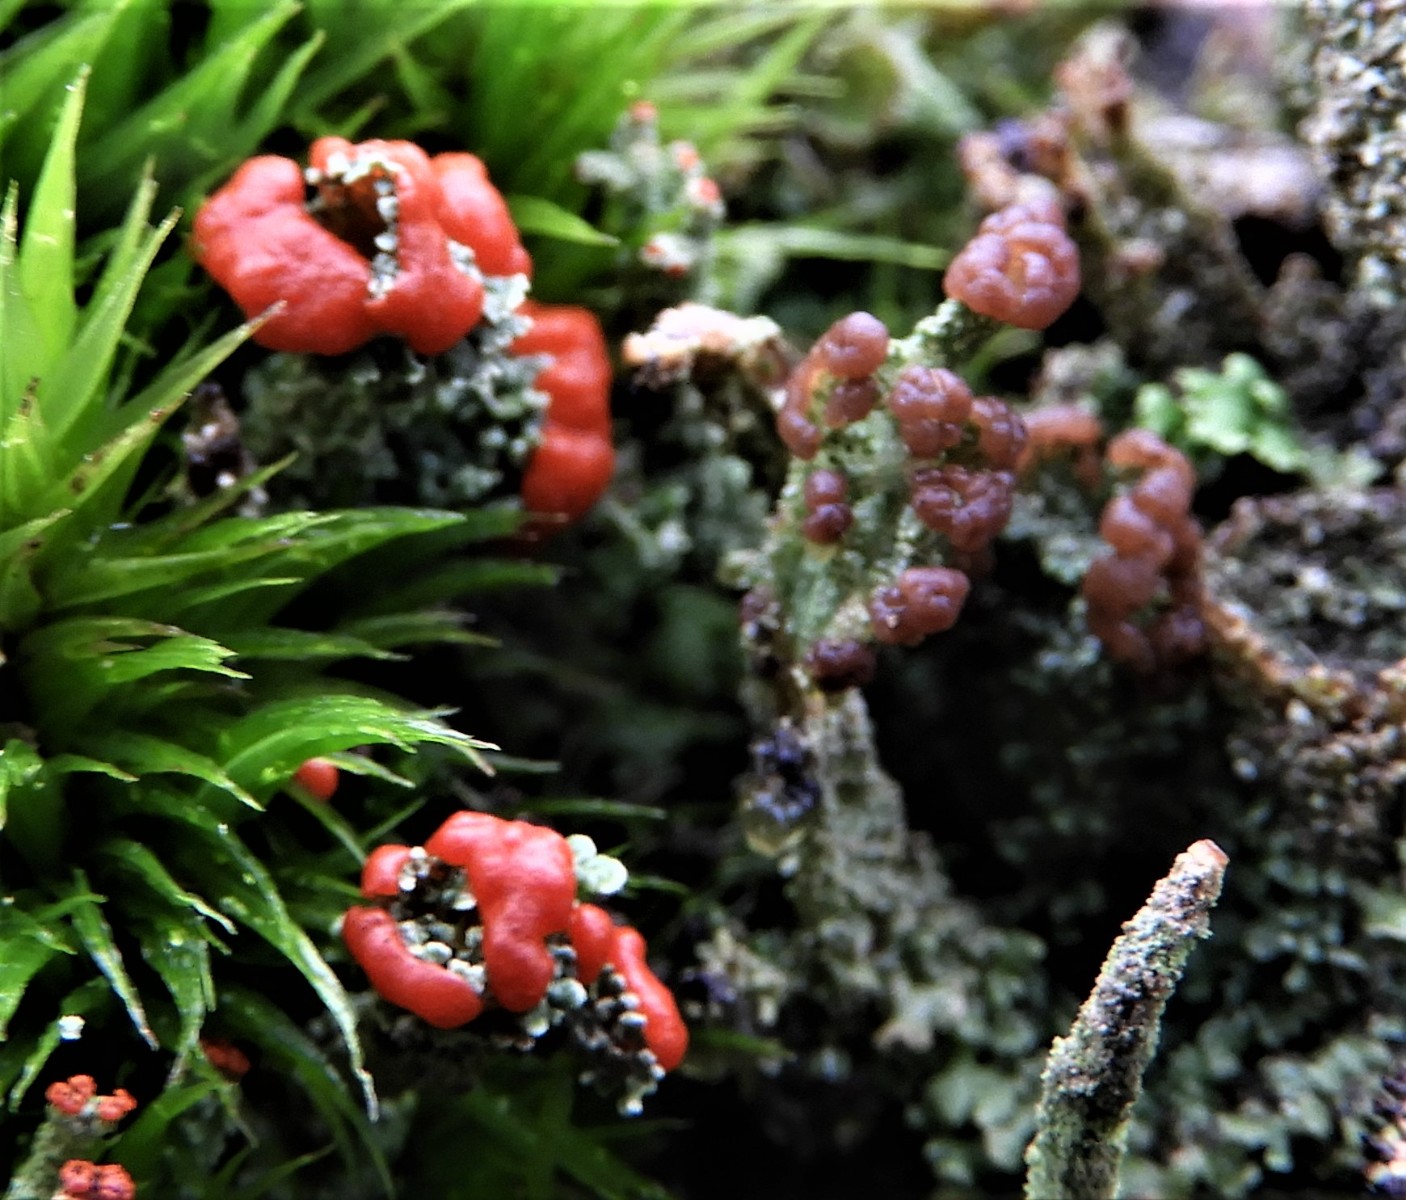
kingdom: Fungi
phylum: Ascomycota
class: Lecanoromycetes
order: Lecanorales
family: Cladoniaceae
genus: Cladonia
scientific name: Cladonia floerkeana
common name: lakrød bægerlav
